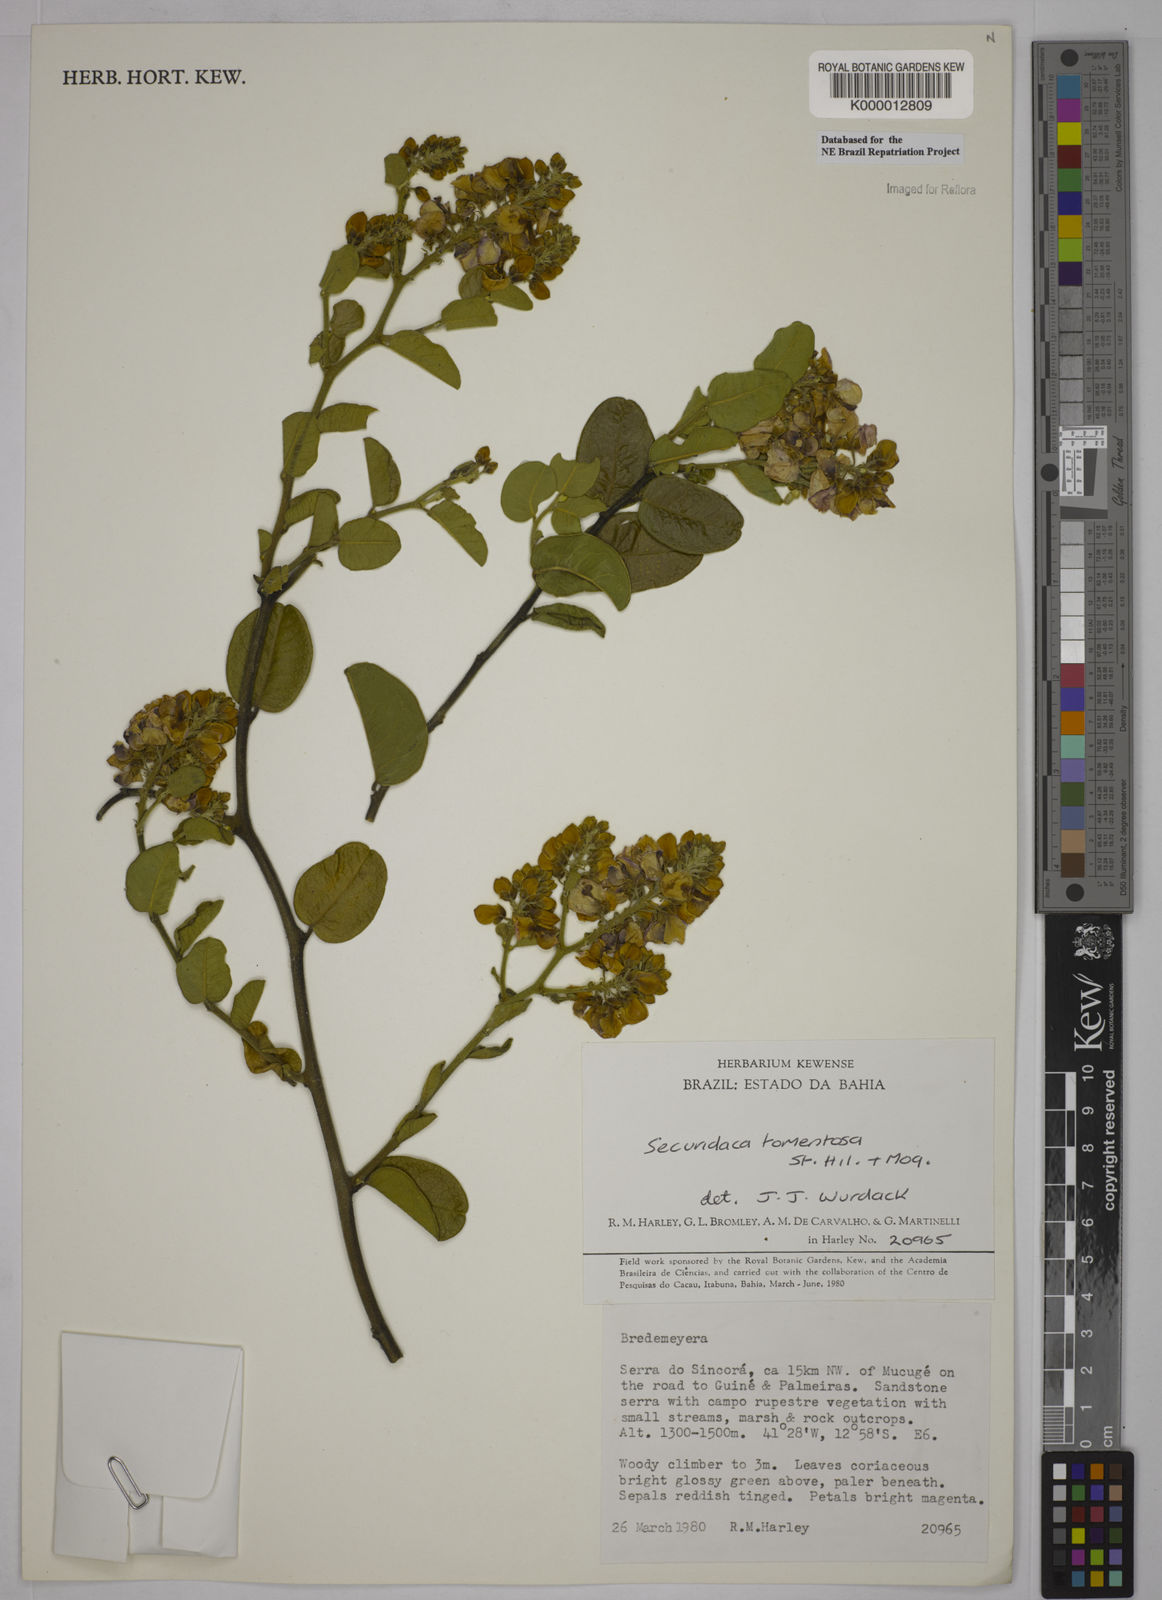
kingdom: Plantae
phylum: Tracheophyta
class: Magnoliopsida
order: Fabales
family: Polygalaceae
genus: Securidaca
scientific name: Securidaca tomentosa
